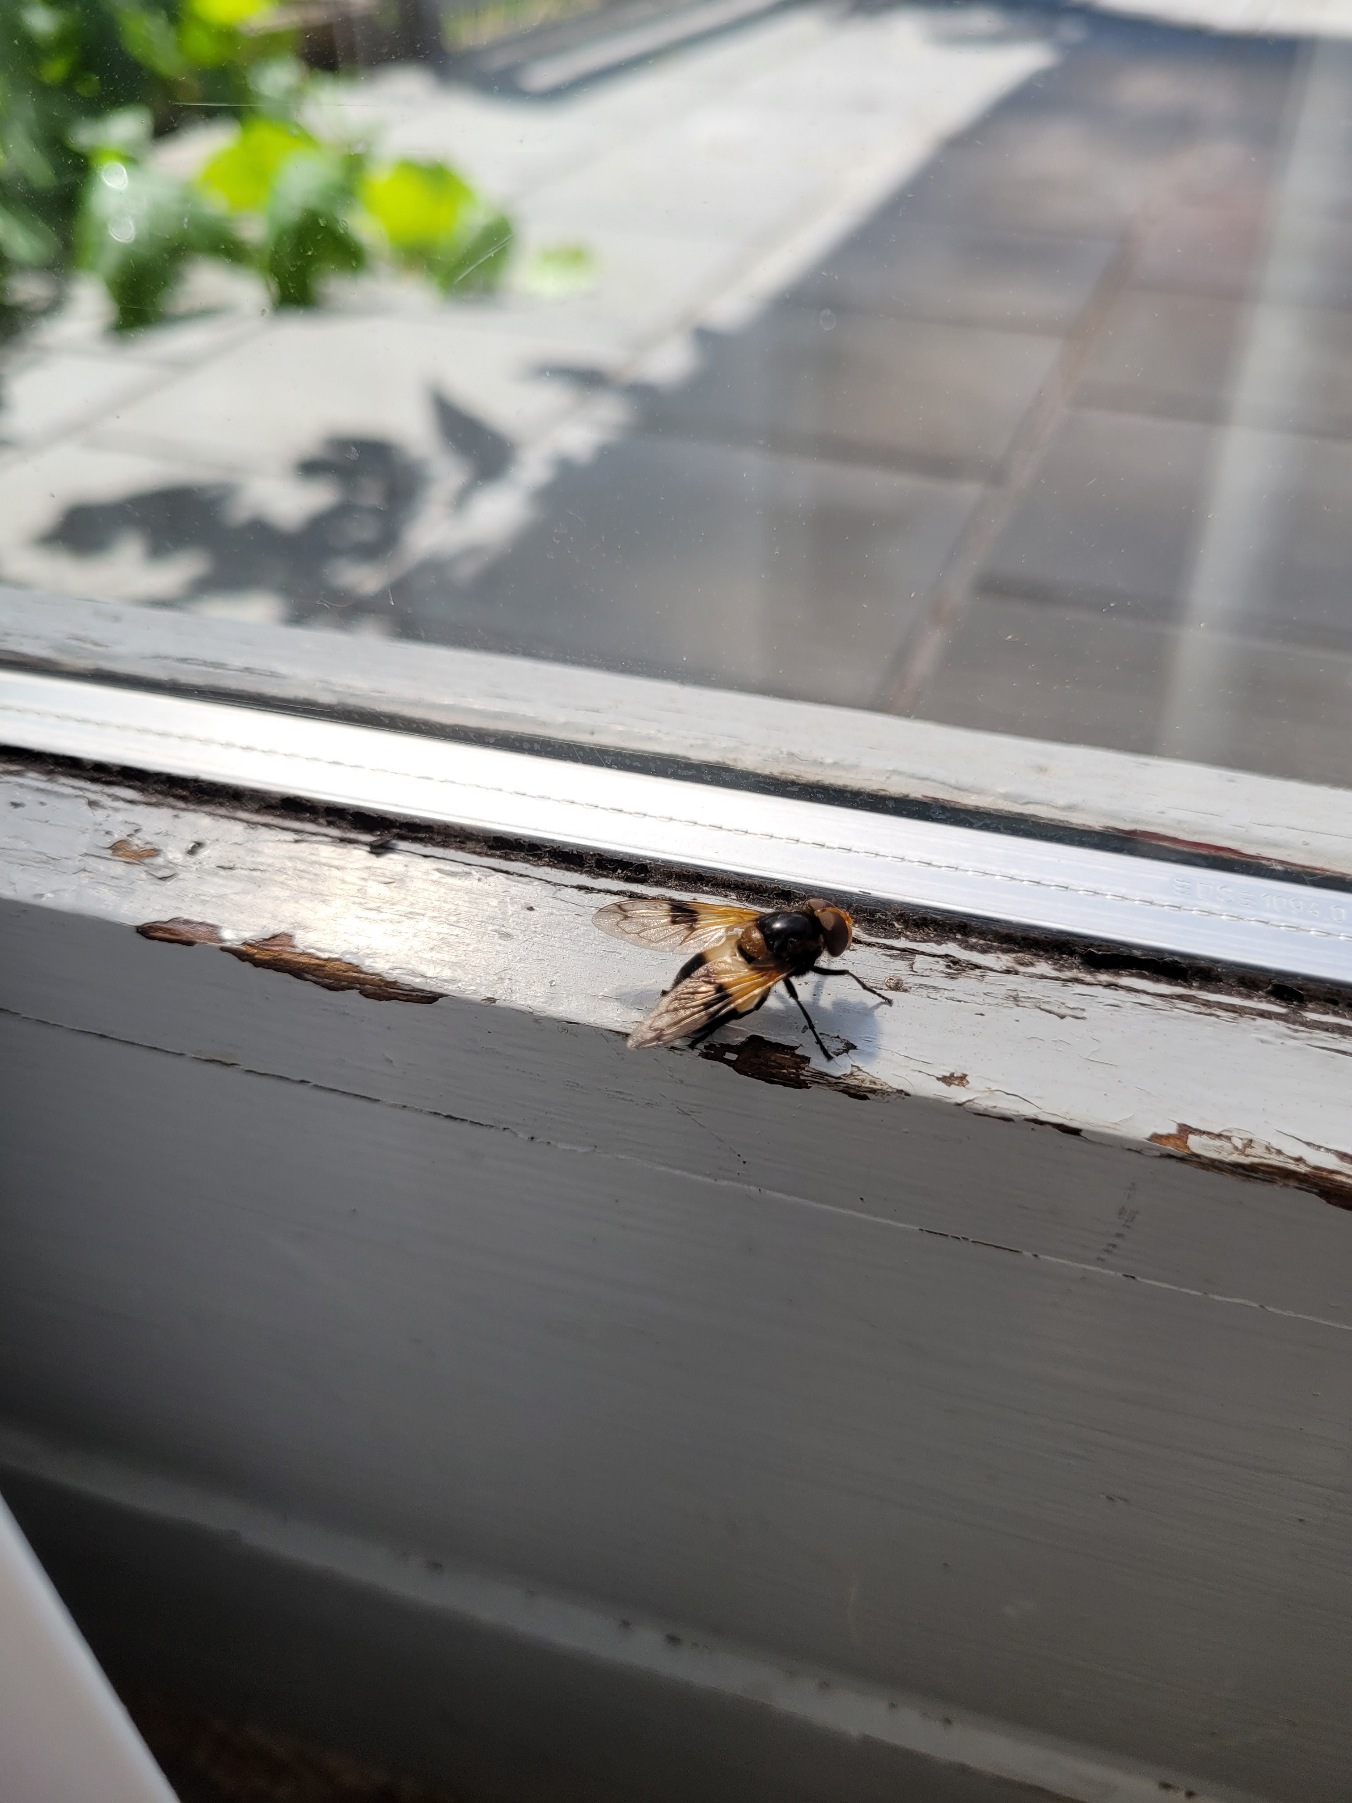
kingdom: Animalia
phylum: Arthropoda
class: Insecta
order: Diptera
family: Syrphidae
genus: Volucella
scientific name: Volucella pellucens
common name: Hvidbåndet humlesvirreflue
